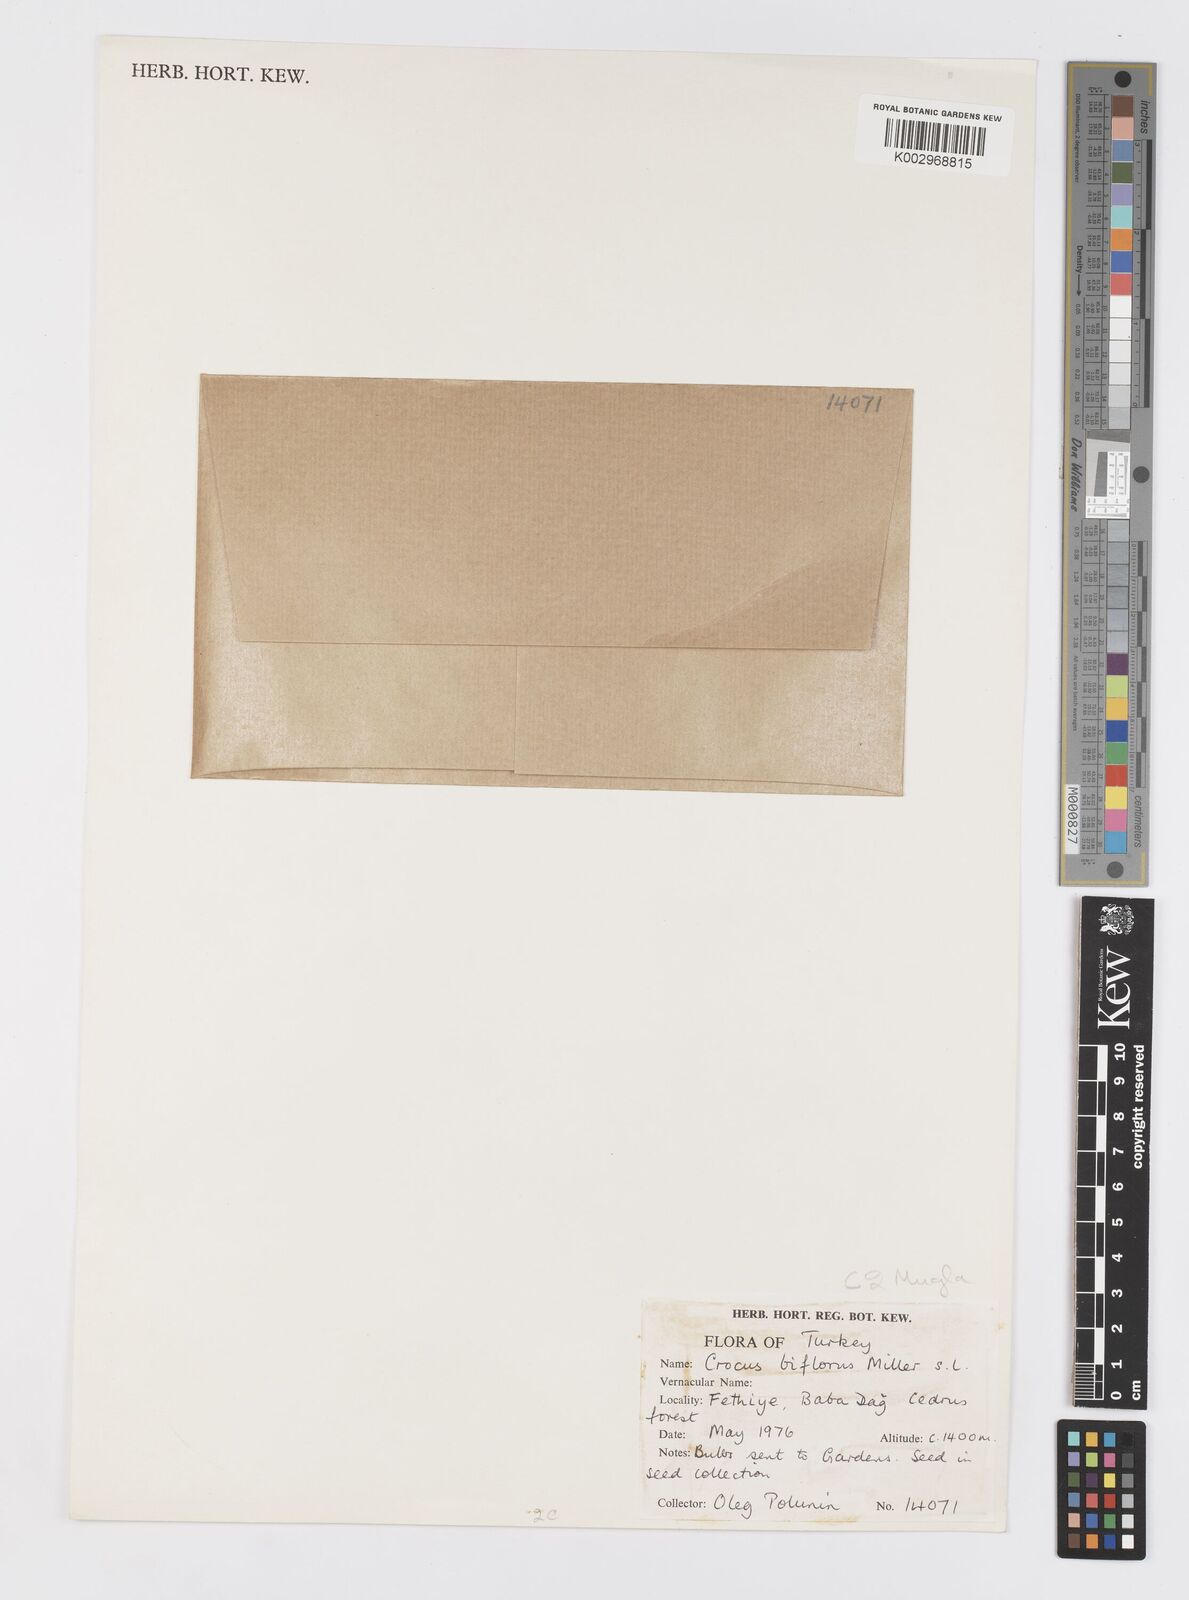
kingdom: Plantae
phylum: Tracheophyta
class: Liliopsida
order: Asparagales
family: Iridaceae
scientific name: Iridaceae
